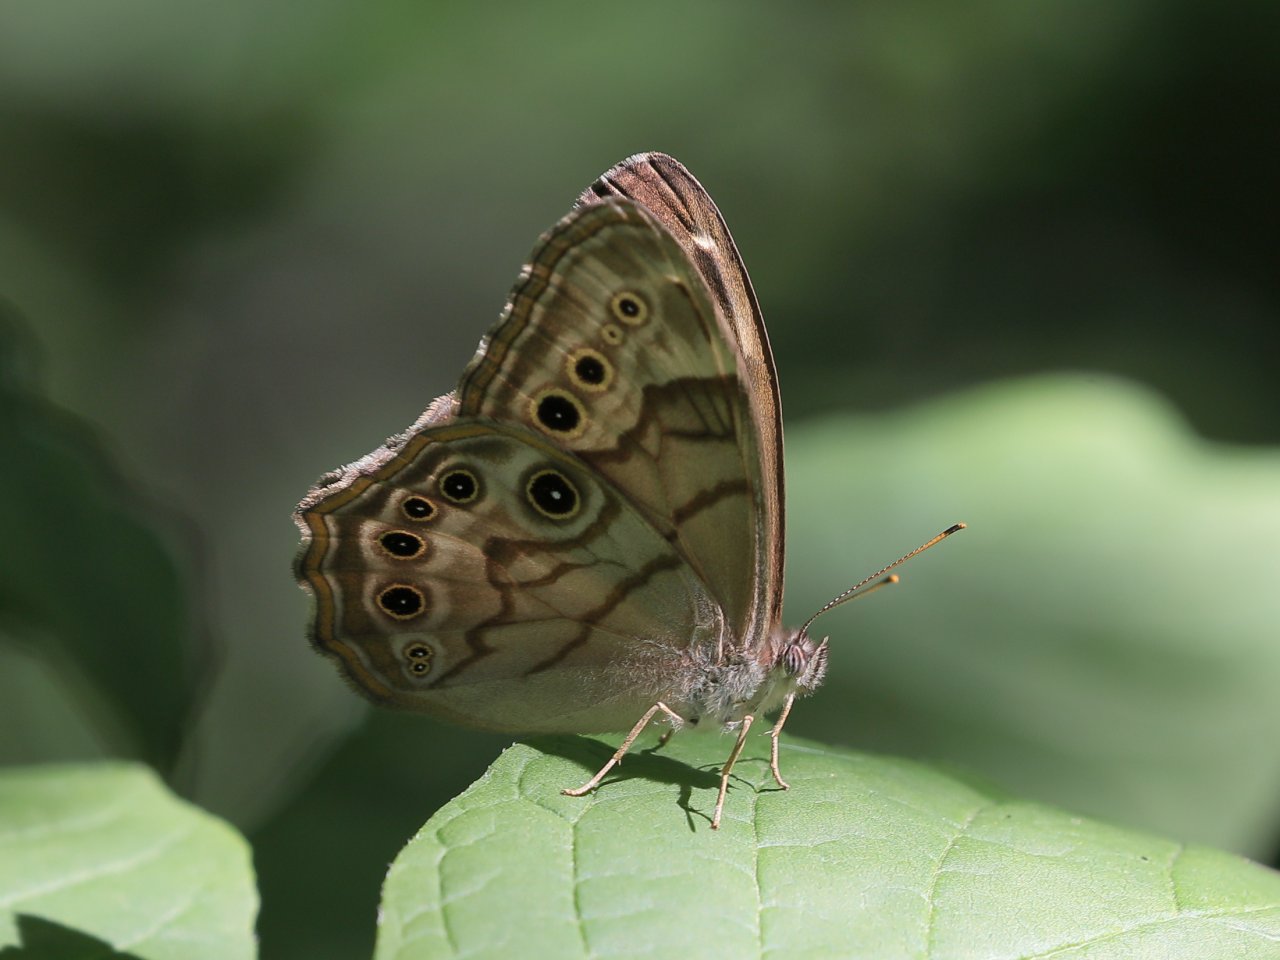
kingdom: Animalia
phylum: Arthropoda
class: Insecta
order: Lepidoptera
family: Nymphalidae
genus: Lethe
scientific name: Lethe anthedon
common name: Northern Pearly-Eye
